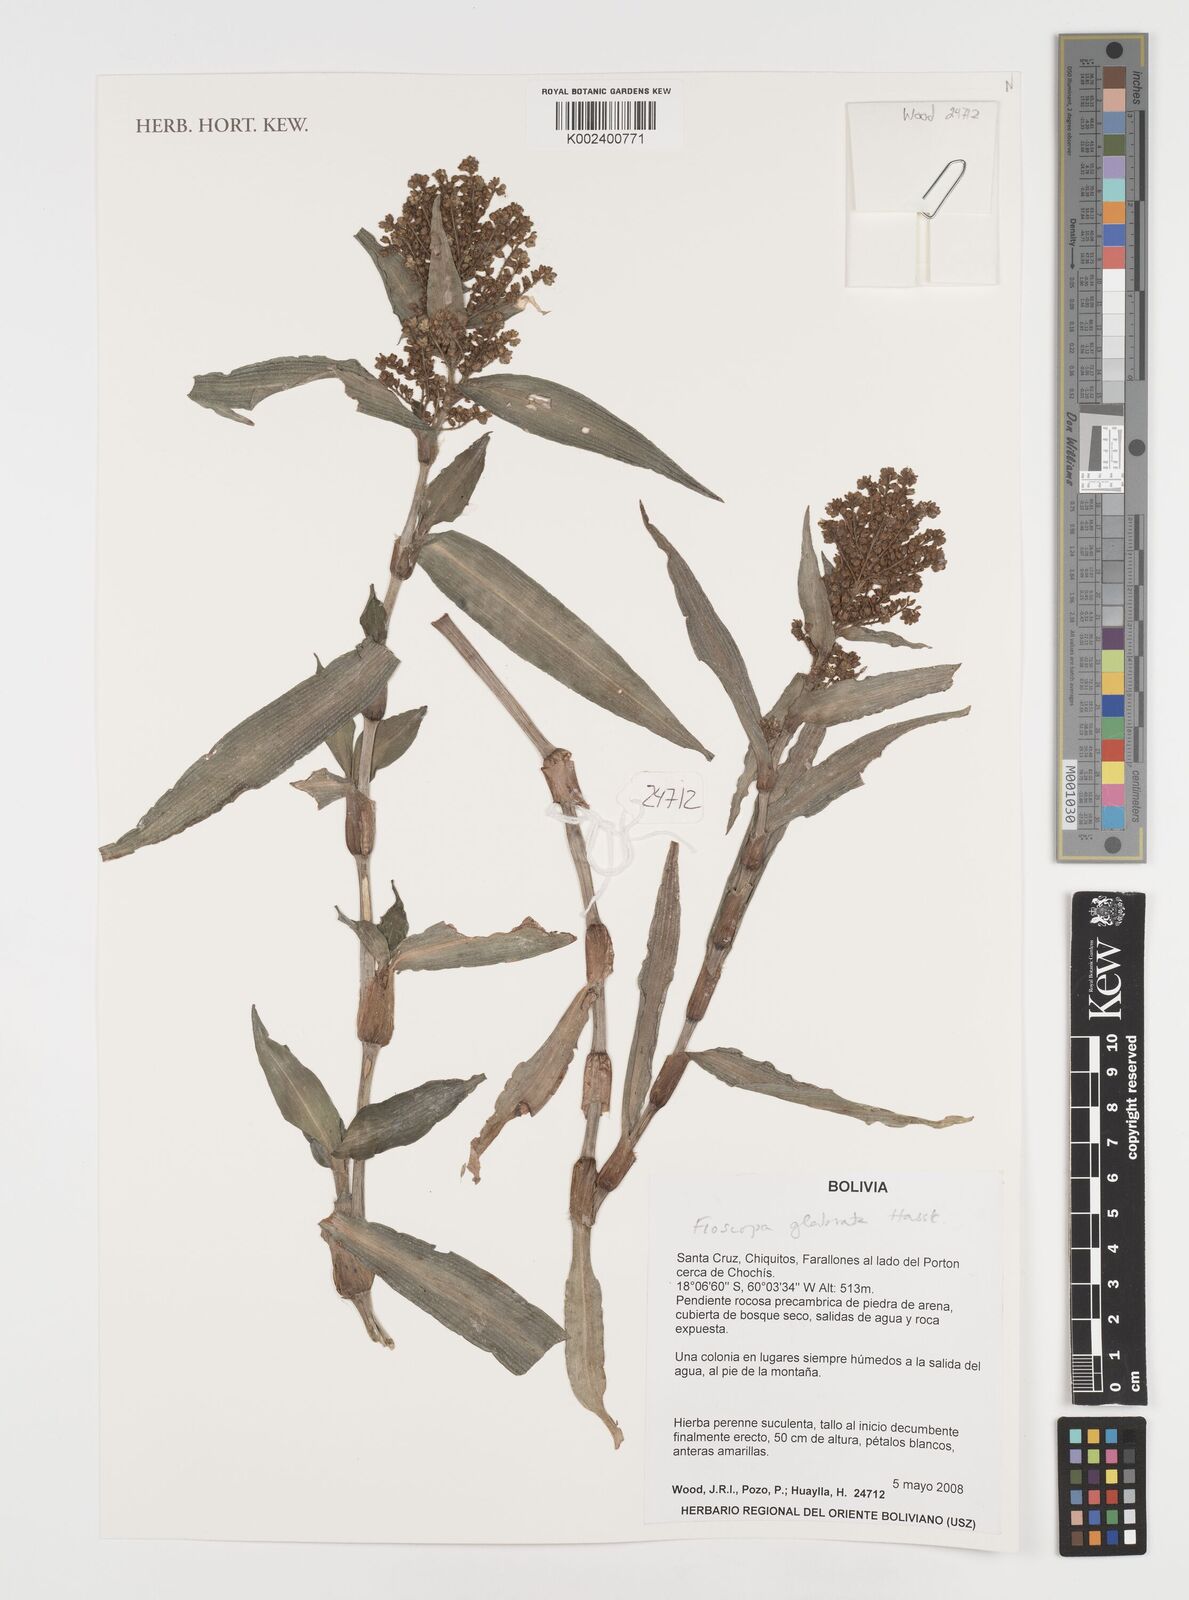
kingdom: Plantae
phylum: Tracheophyta
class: Liliopsida
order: Commelinales
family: Commelinaceae
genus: Floscopa
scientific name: Floscopa glabrata
